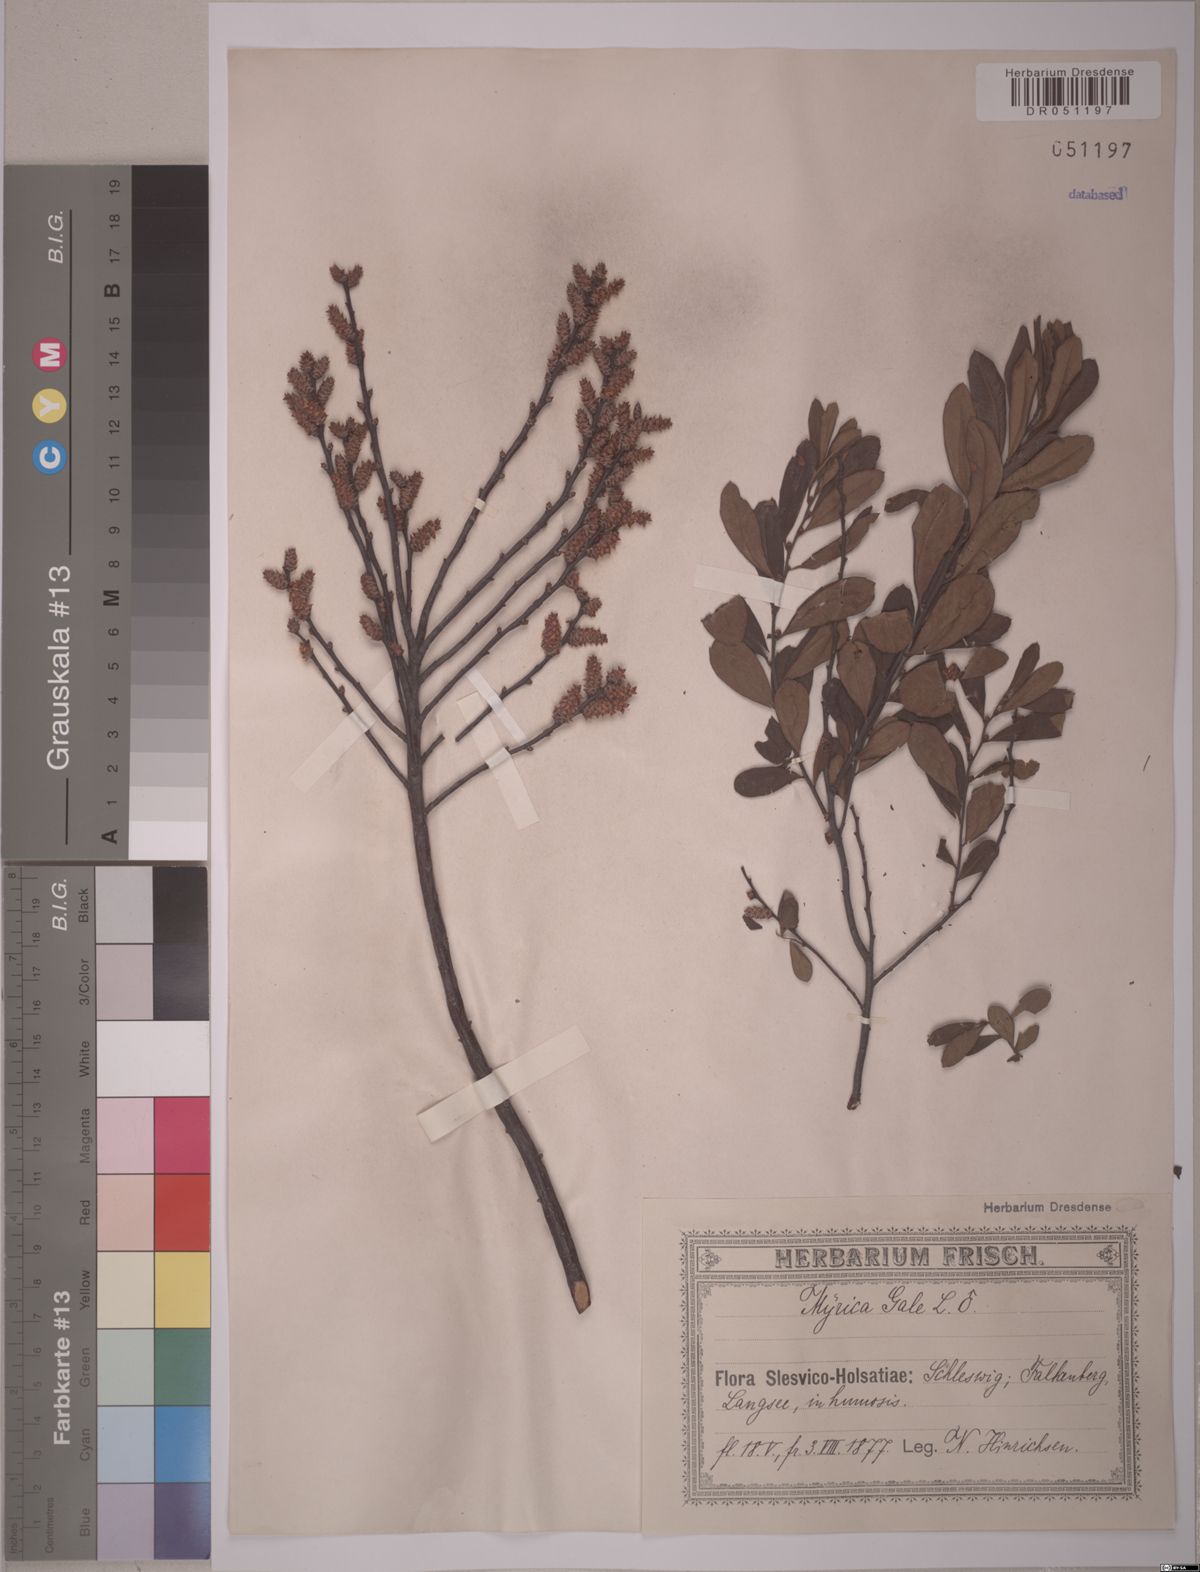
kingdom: Plantae
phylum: Tracheophyta
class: Magnoliopsida
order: Fagales
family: Myricaceae
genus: Myrica
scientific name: Myrica gale
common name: Sweet gale
